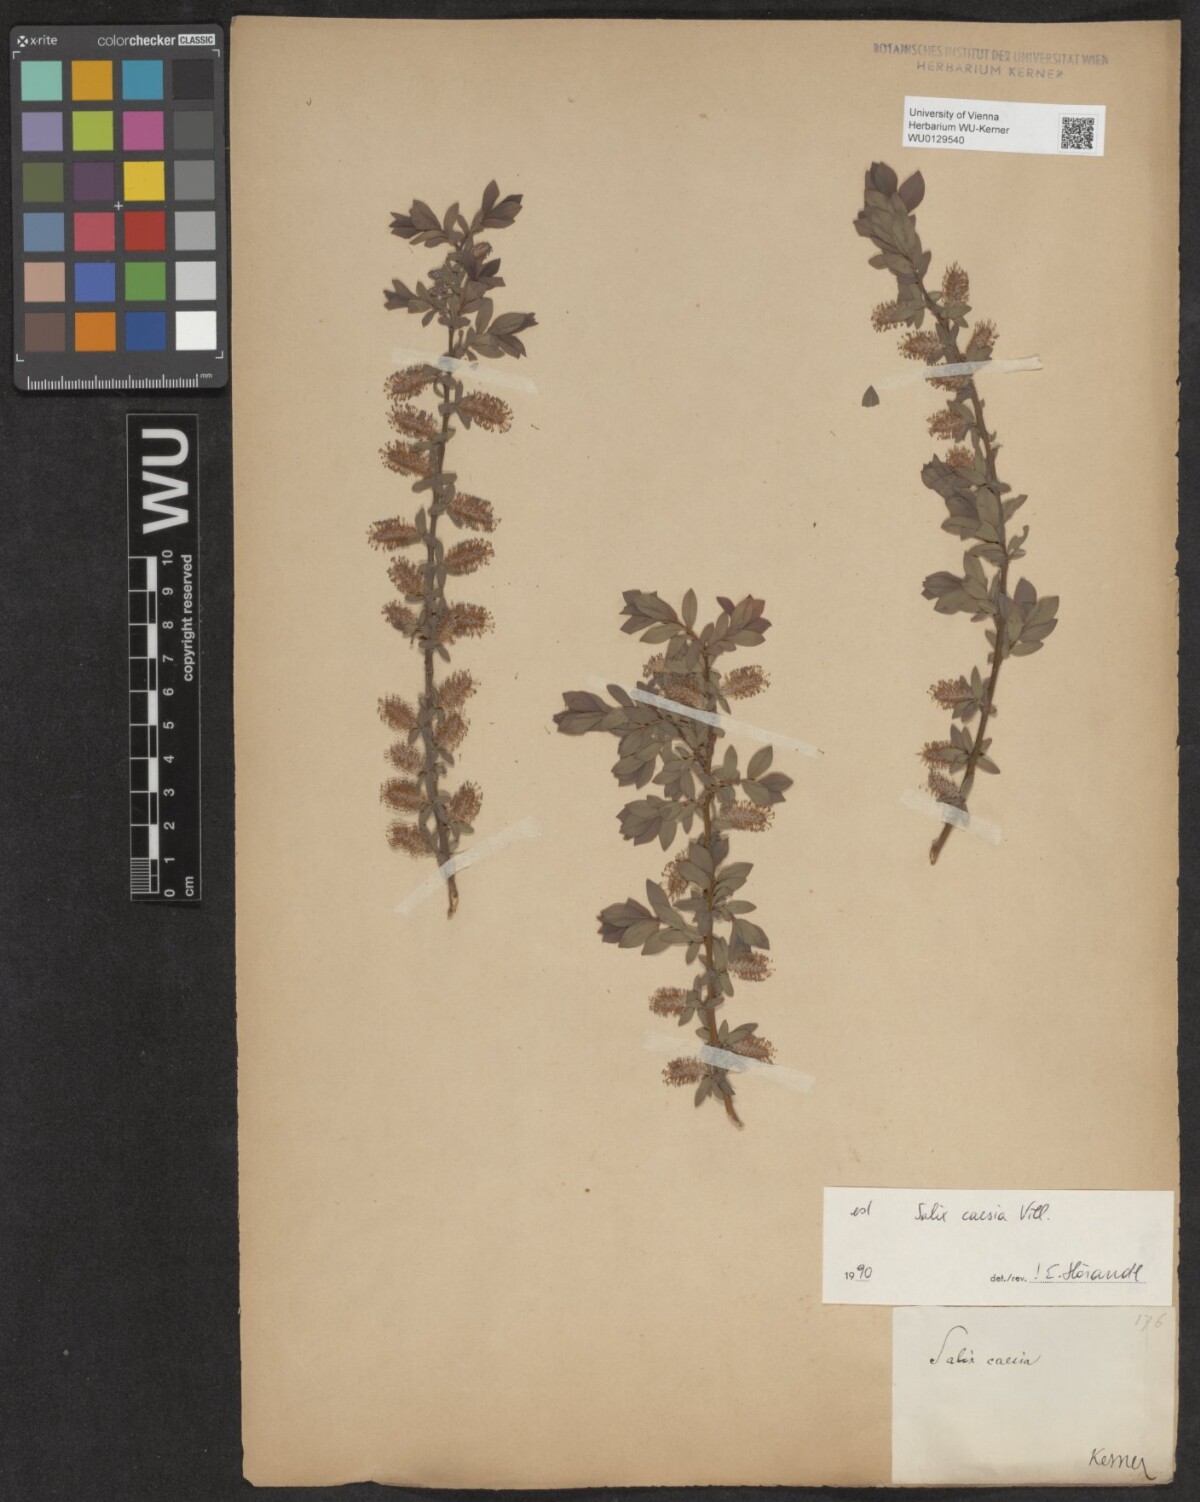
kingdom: Plantae
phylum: Tracheophyta
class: Magnoliopsida
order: Malpighiales
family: Salicaceae
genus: Salix
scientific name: Salix caesia
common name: Blue willow
